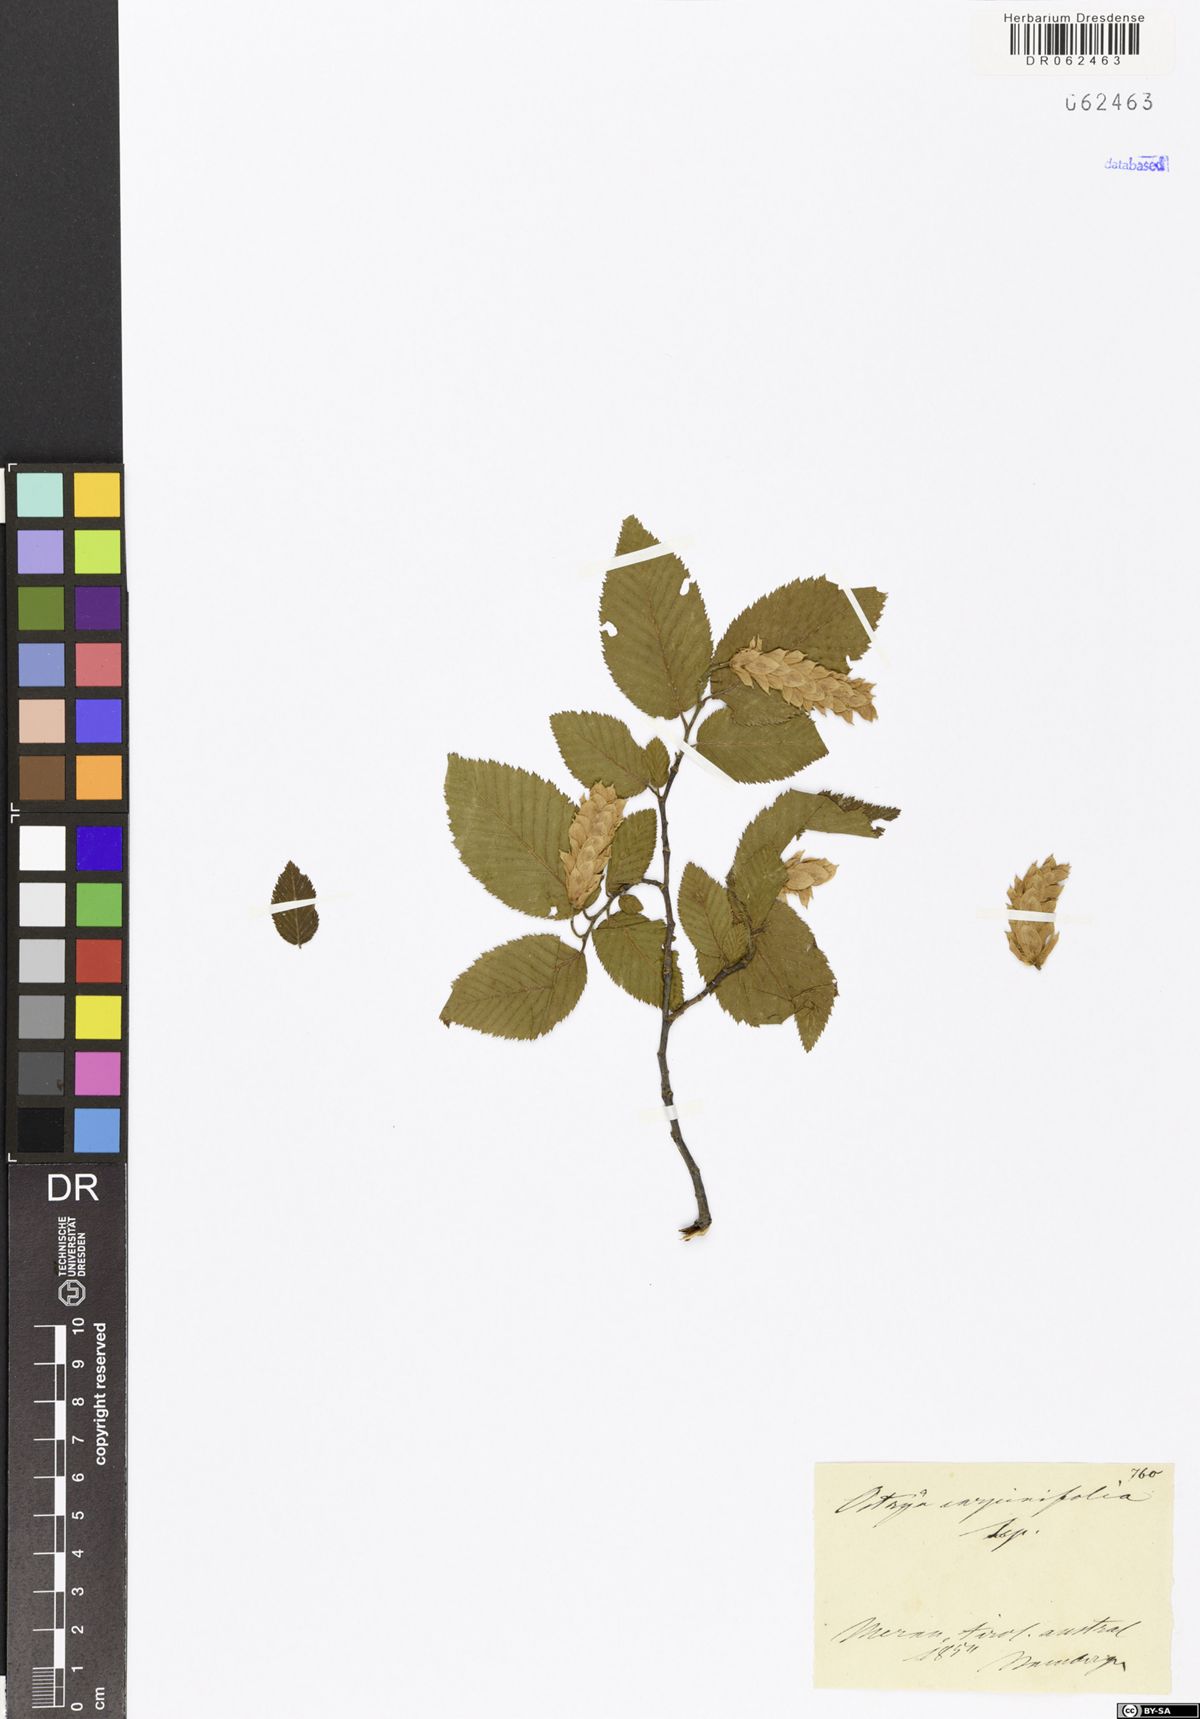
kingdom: Plantae
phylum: Tracheophyta
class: Magnoliopsida
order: Fagales
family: Betulaceae
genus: Ostrya
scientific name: Ostrya carpinifolia
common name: European hop-hornbeam
